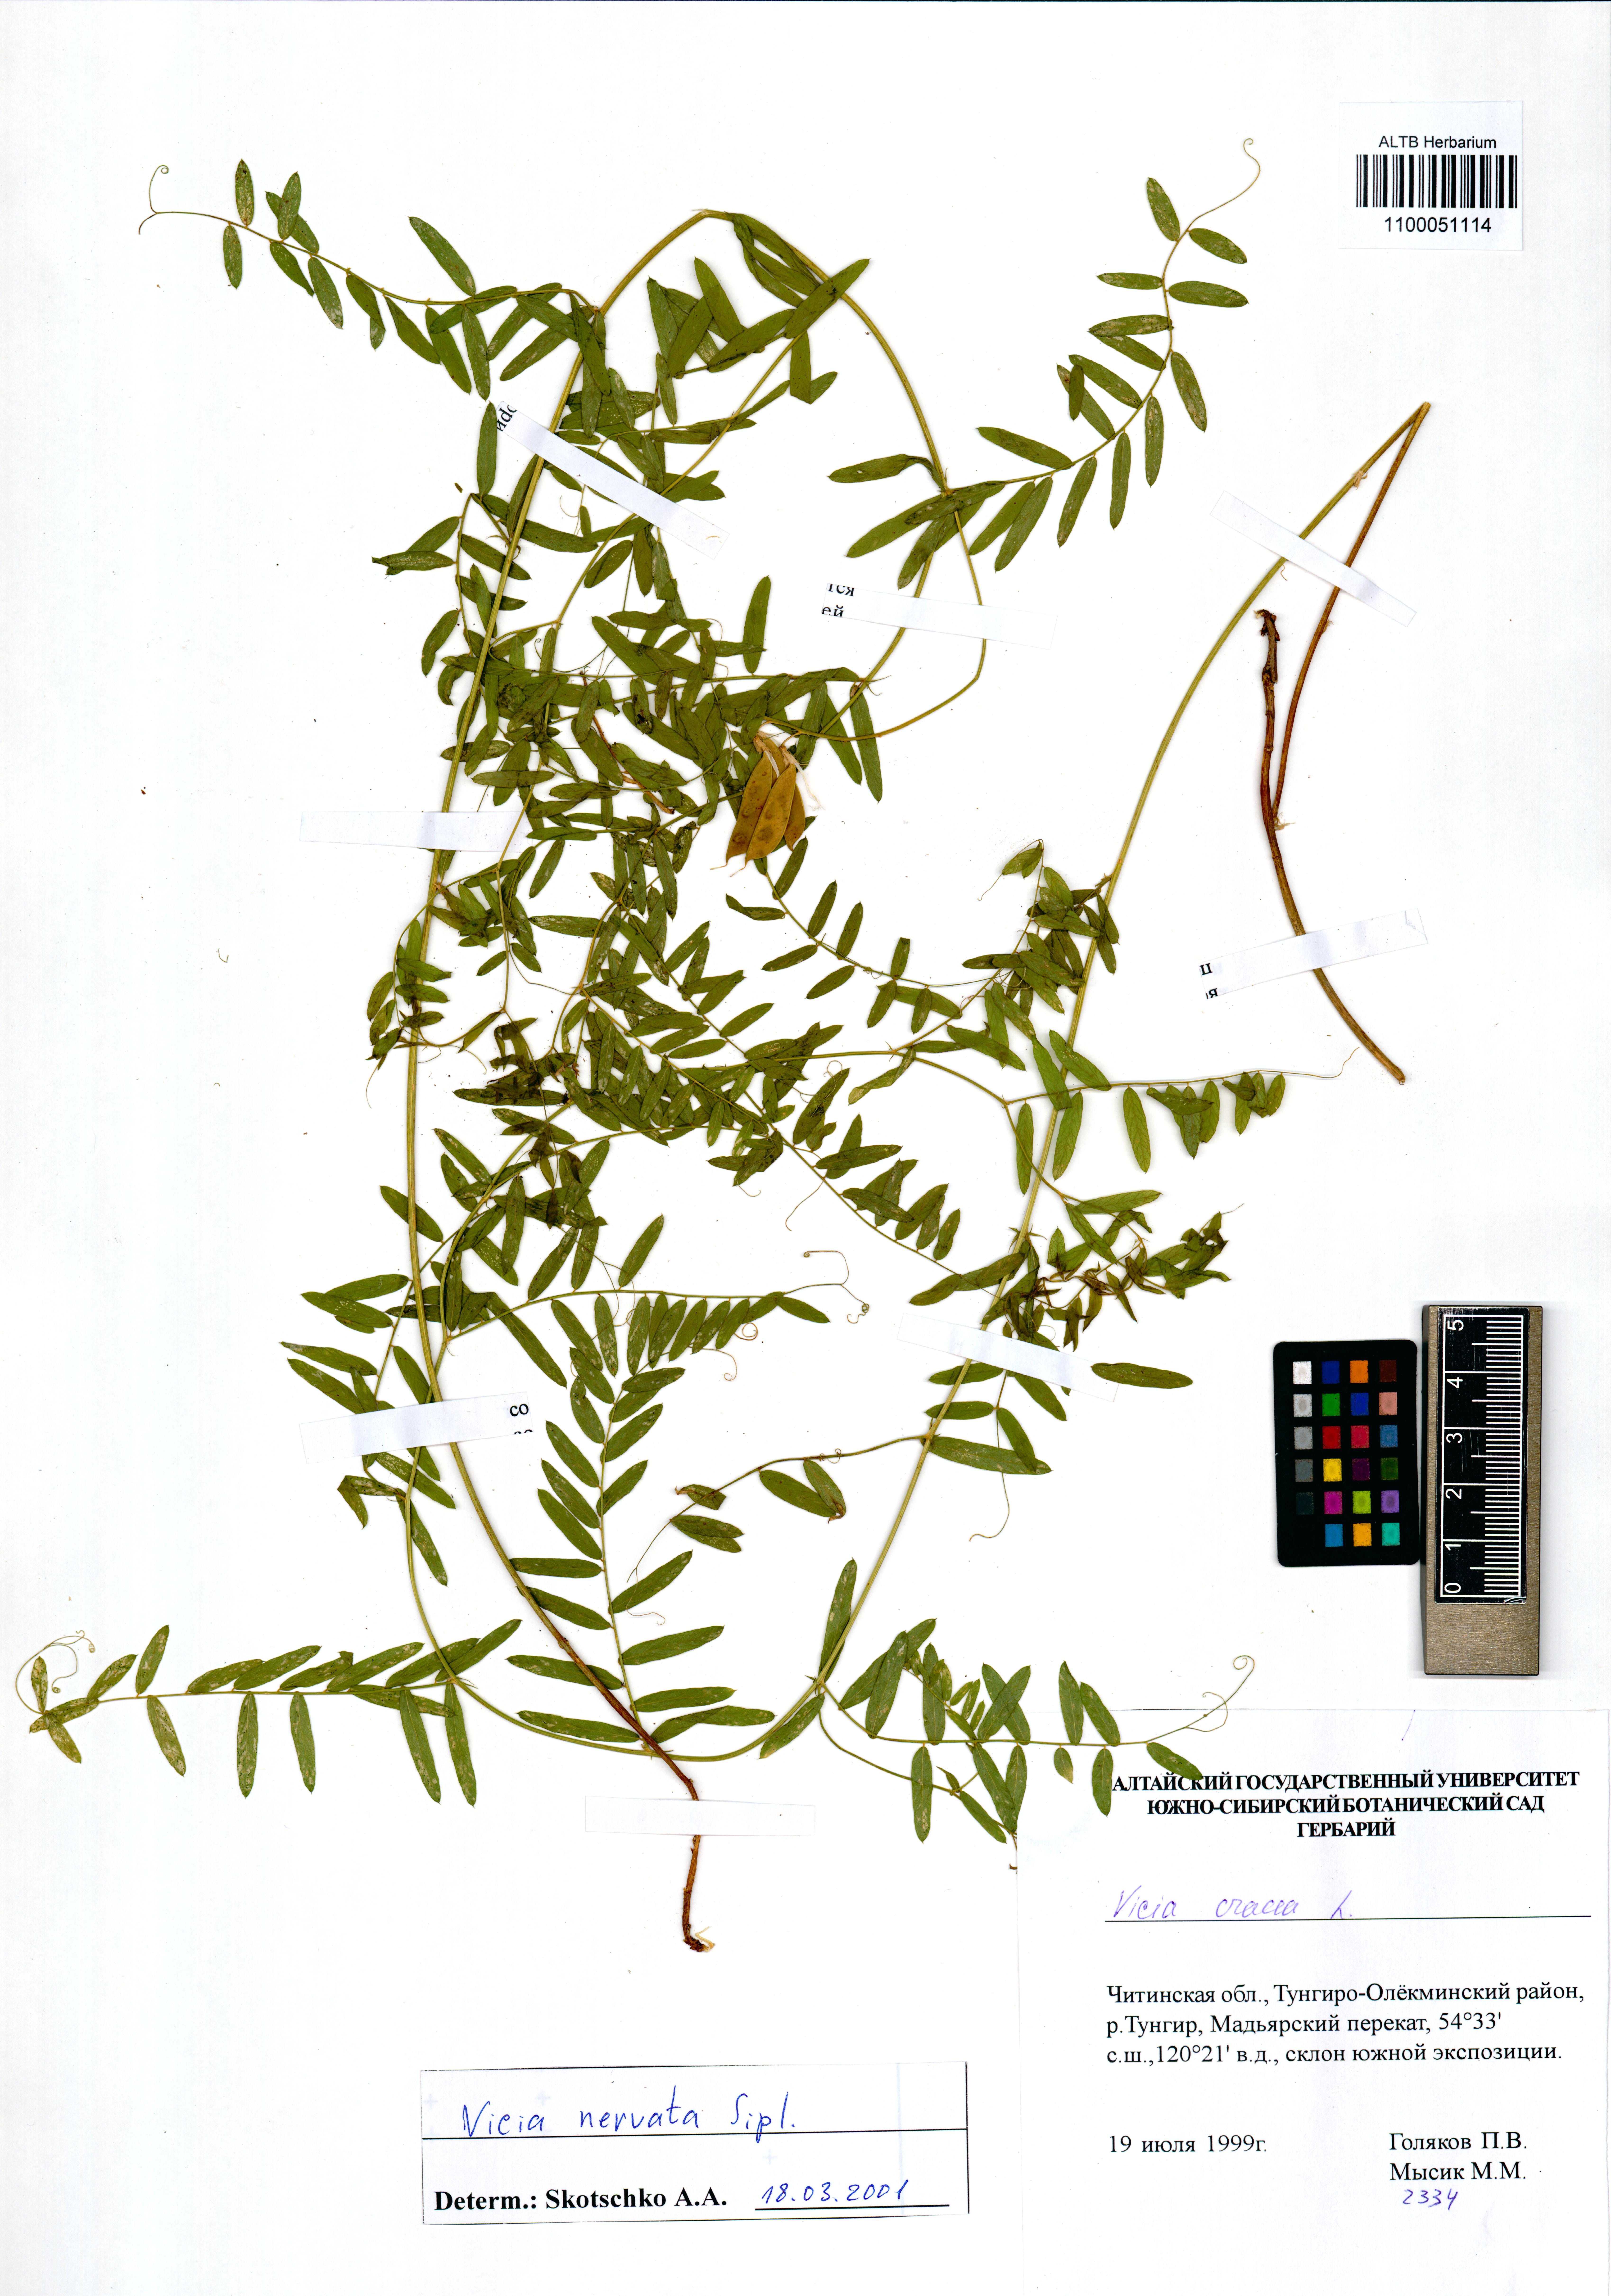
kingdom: Plantae
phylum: Tracheophyta
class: Magnoliopsida
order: Fabales
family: Fabaceae
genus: Vicia
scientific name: Vicia multicaulis
